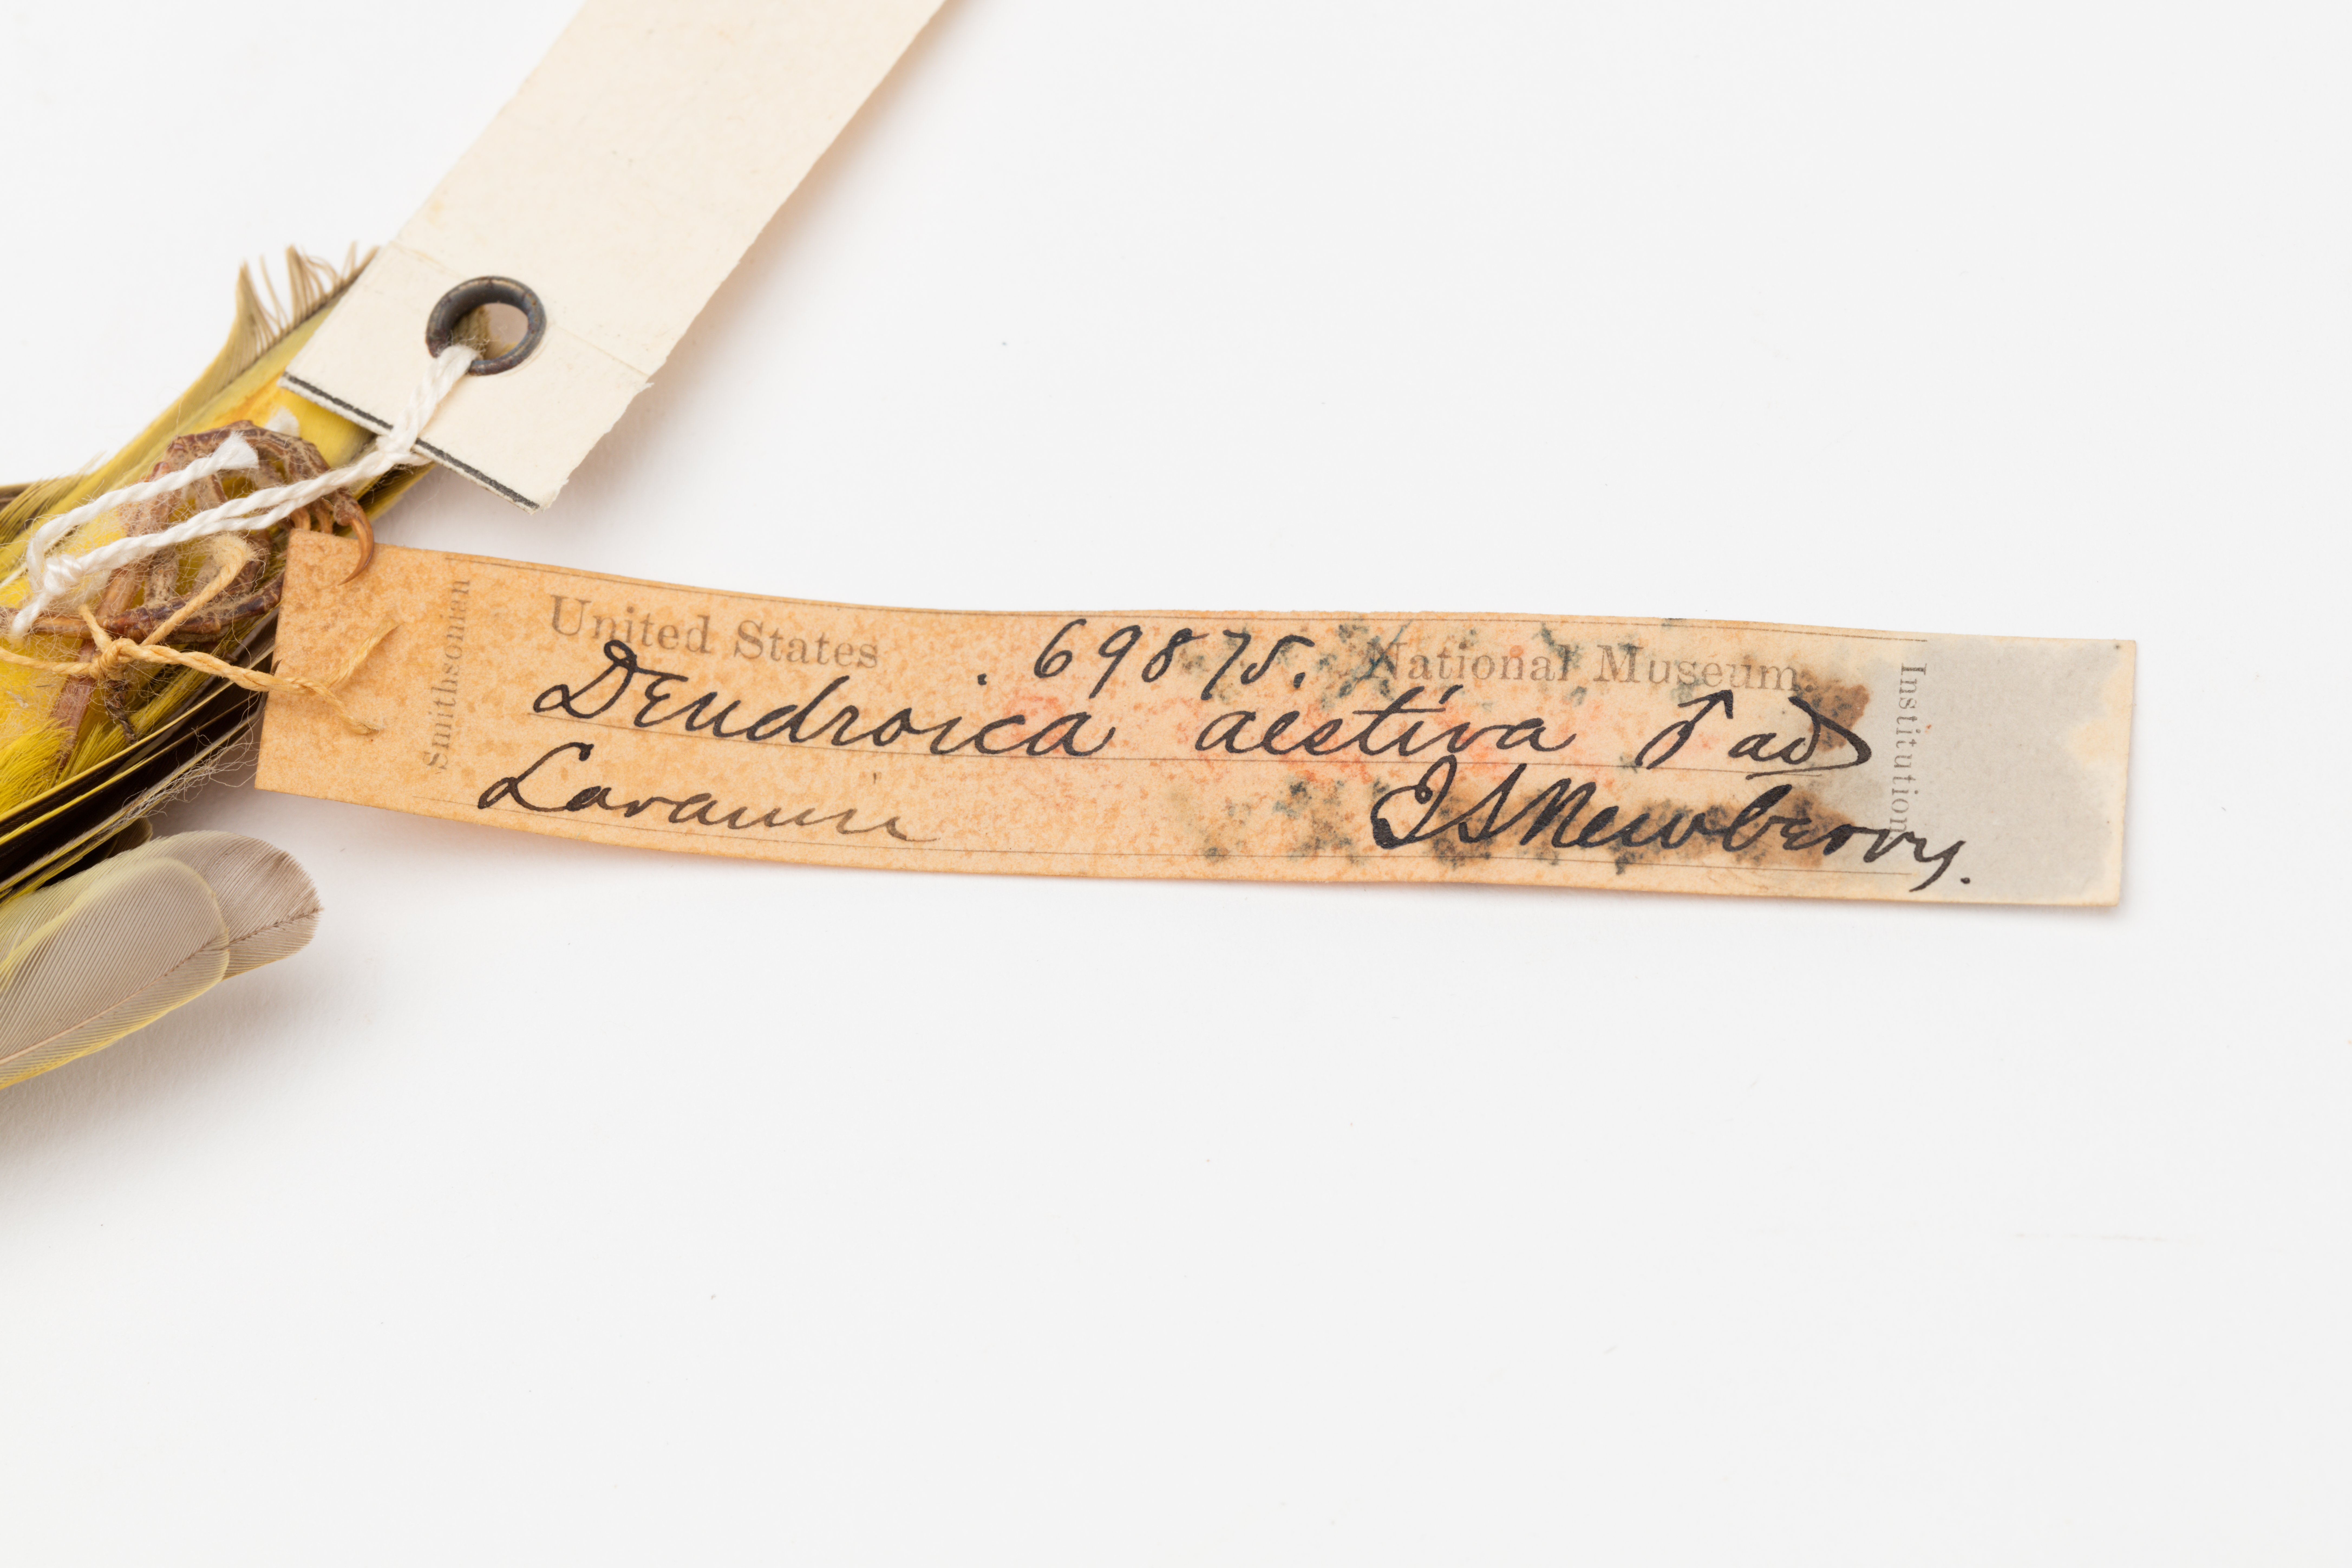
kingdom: Animalia
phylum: Chordata
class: Aves
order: Passeriformes
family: Parulidae
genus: Setophaga
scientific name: Setophaga petechia
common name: Yellow warbler
